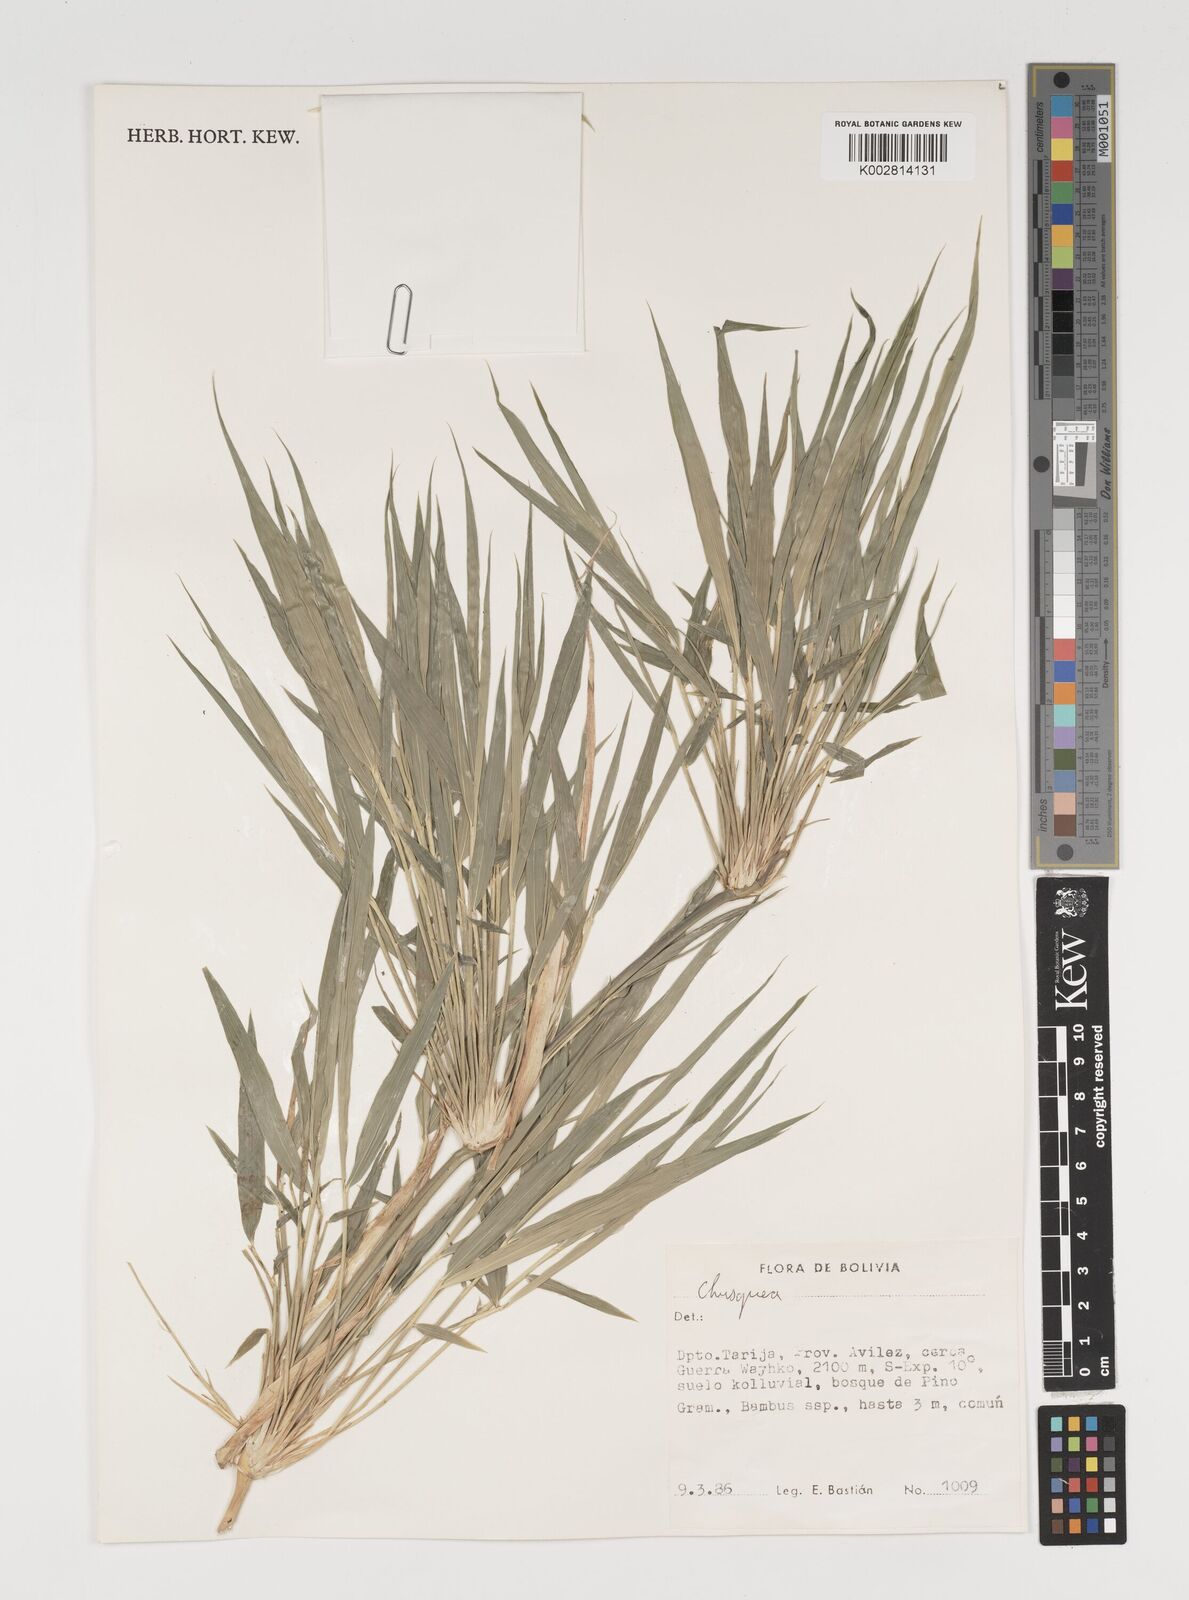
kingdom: Plantae
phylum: Tracheophyta
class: Liliopsida
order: Poales
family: Poaceae
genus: Chusquea
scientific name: Chusquea
